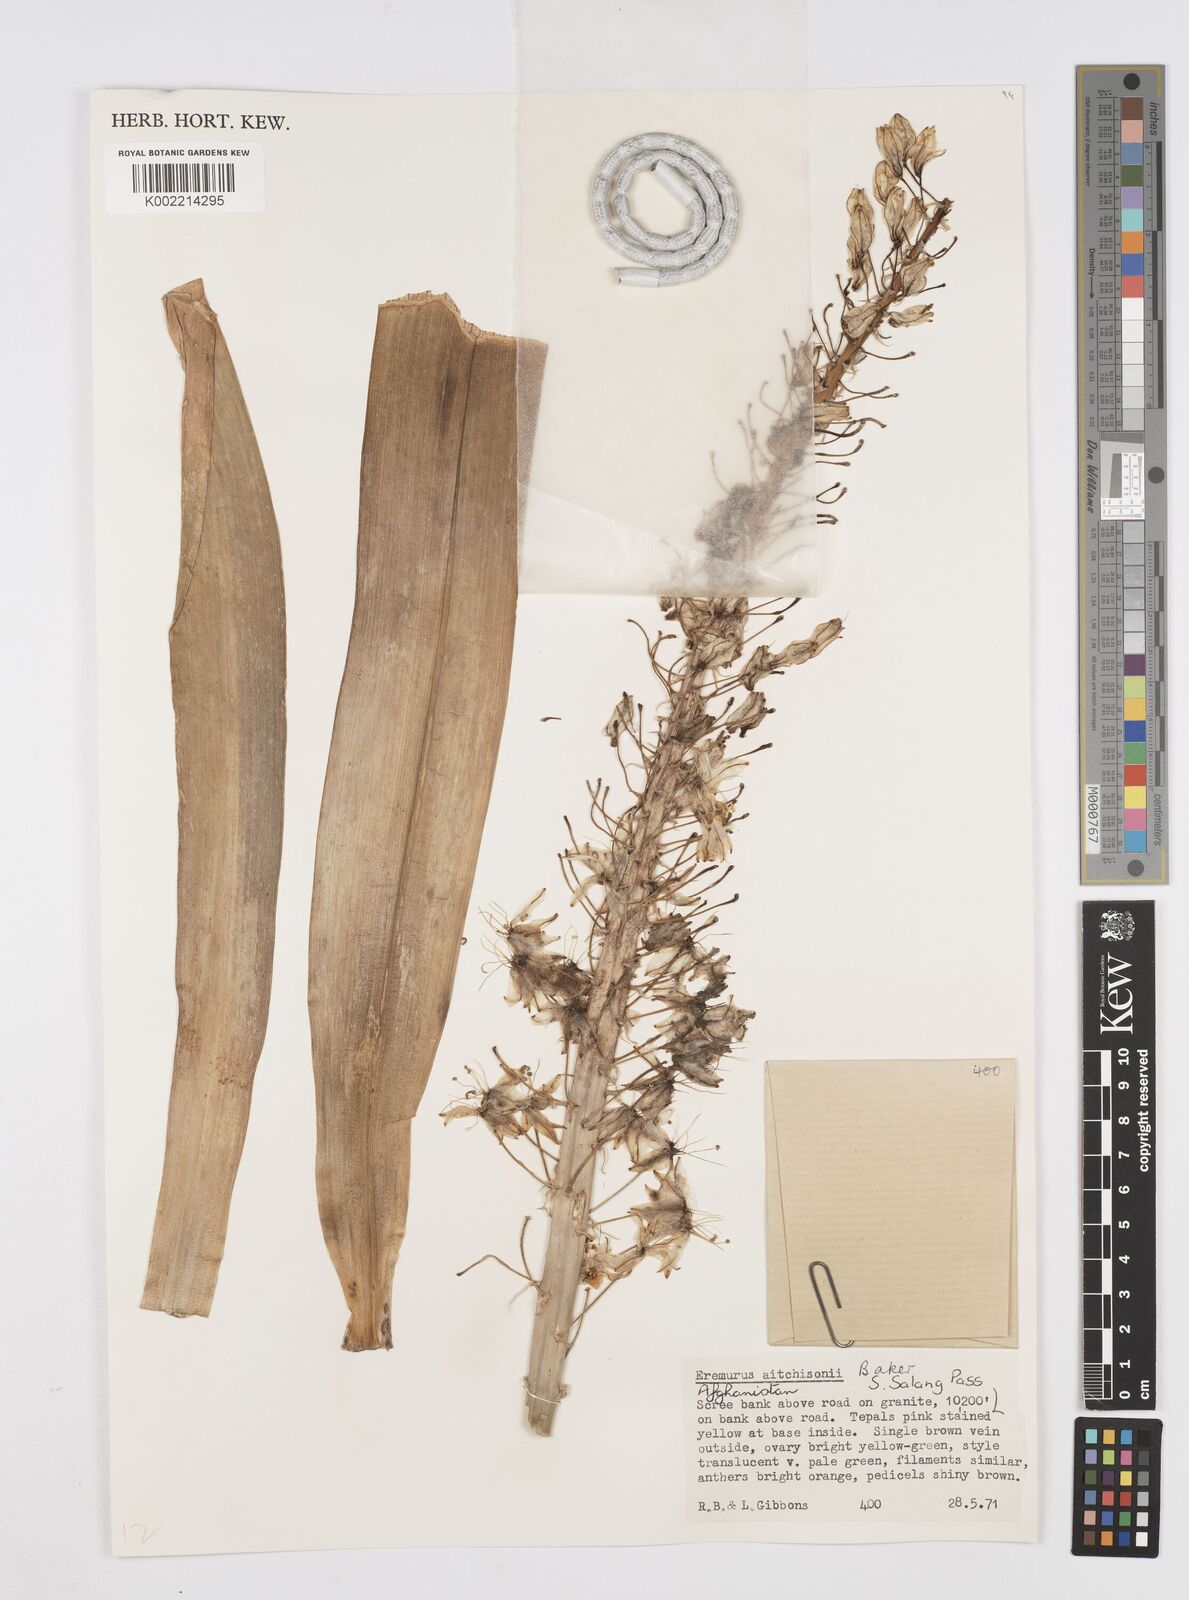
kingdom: Plantae
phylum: Tracheophyta
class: Liliopsida
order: Asparagales
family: Asphodelaceae
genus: Eremurus
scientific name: Eremurus aitchisonii
